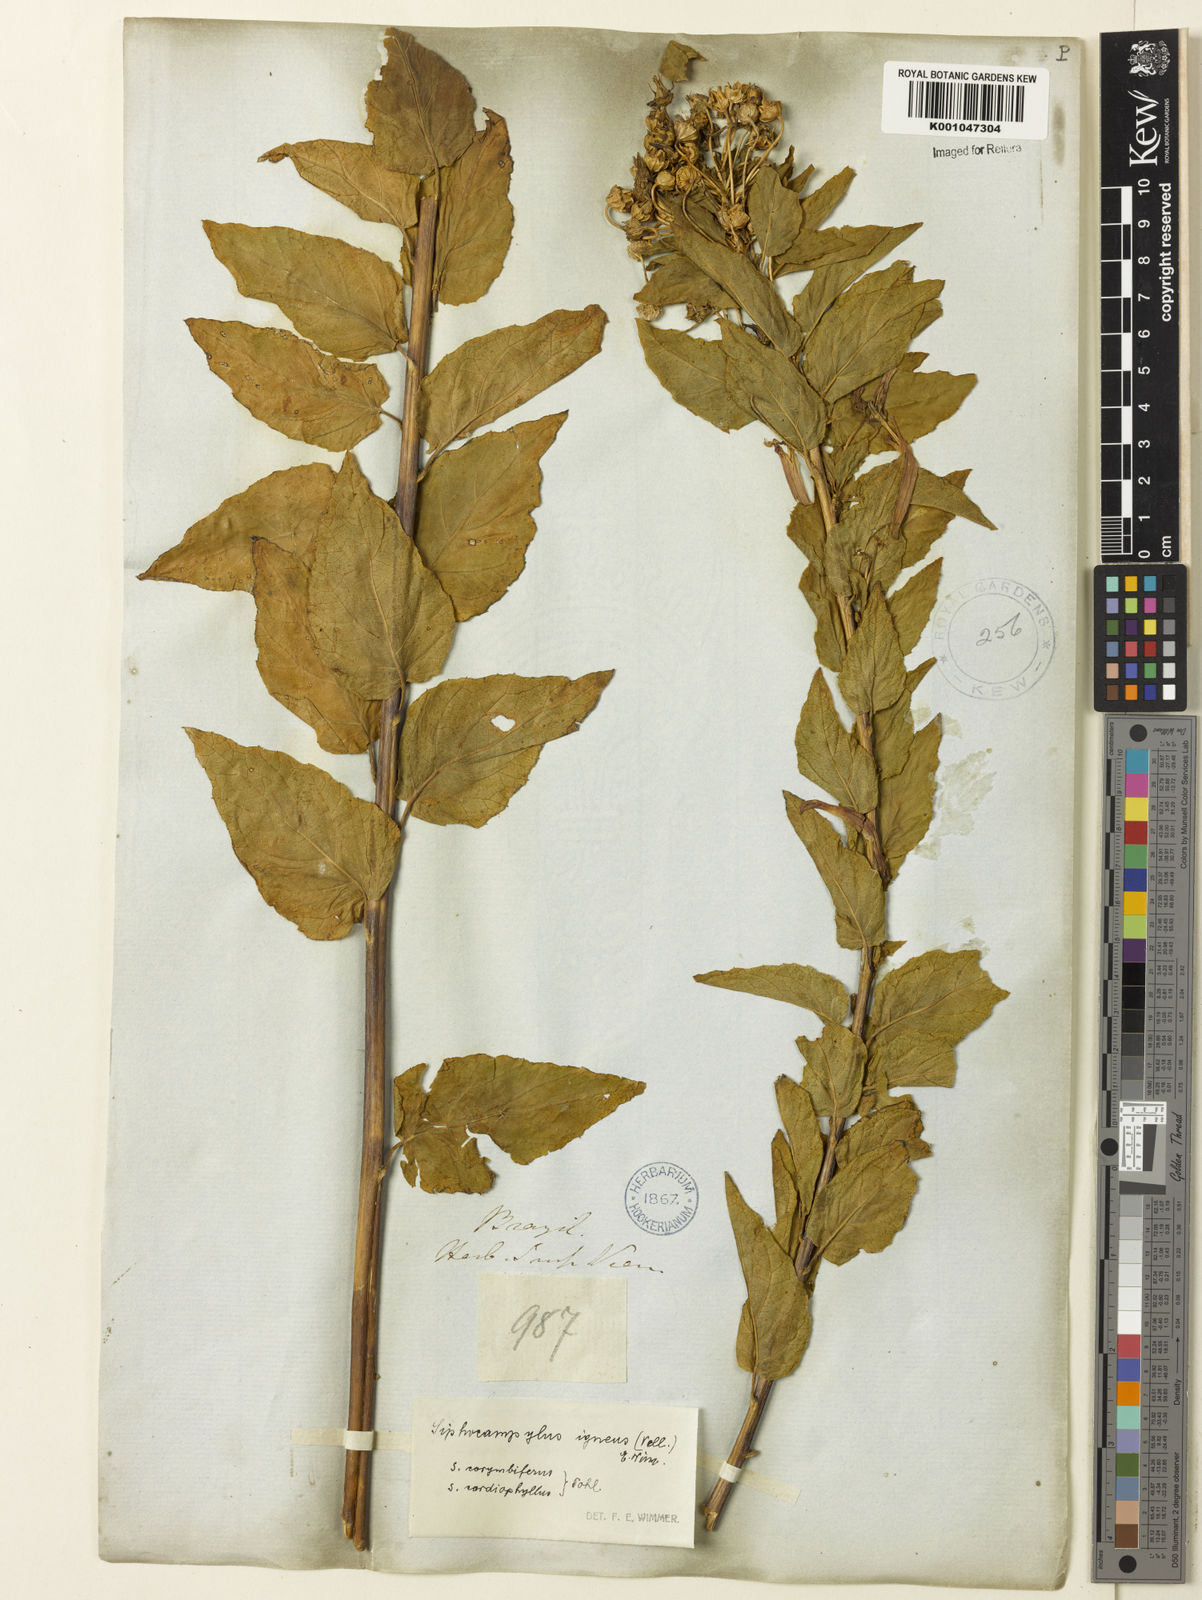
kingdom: Plantae
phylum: Tracheophyta
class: Magnoliopsida
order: Asterales
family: Campanulaceae
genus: Siphocampylus
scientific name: Siphocampylus corymbifer
